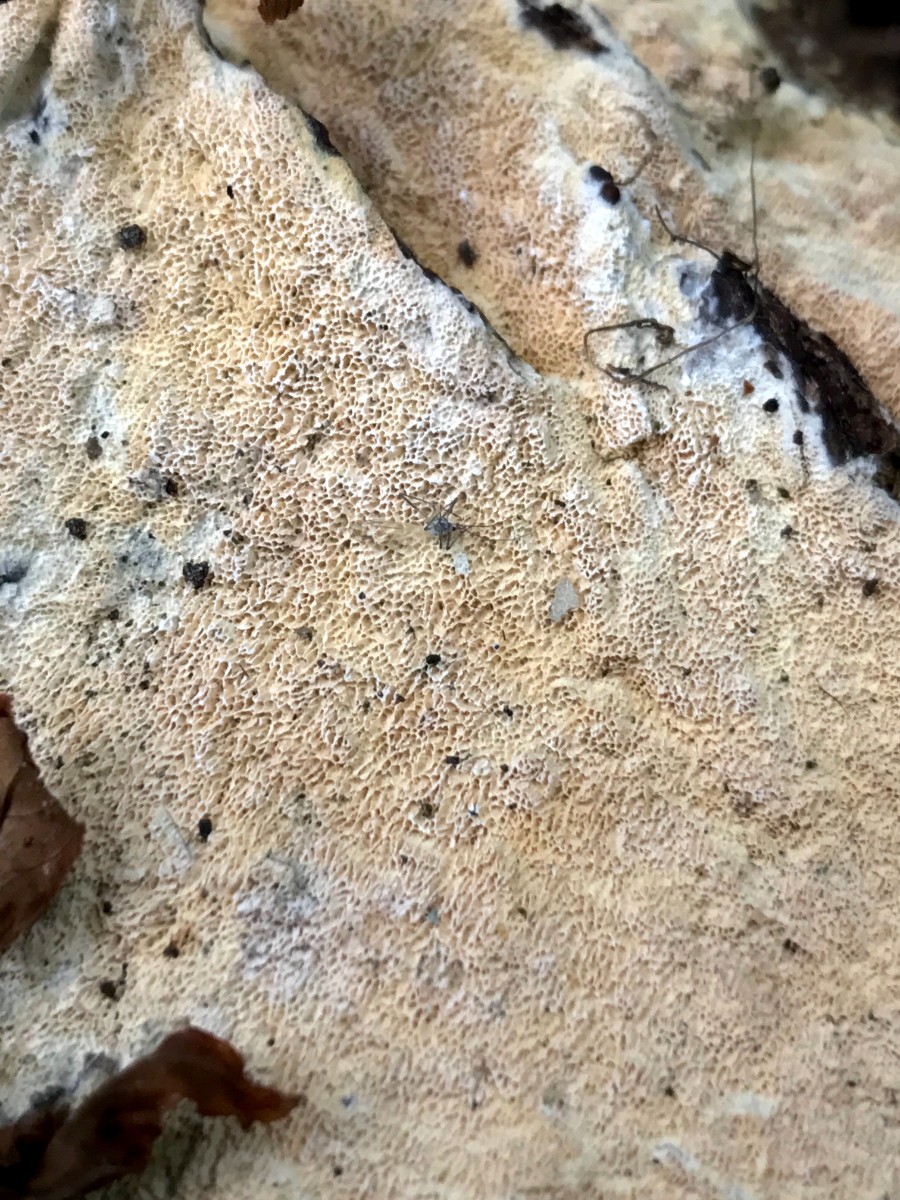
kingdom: Fungi
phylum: Basidiomycota
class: Agaricomycetes
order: Hymenochaetales
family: Schizoporaceae
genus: Xylodon
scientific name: Xylodon
